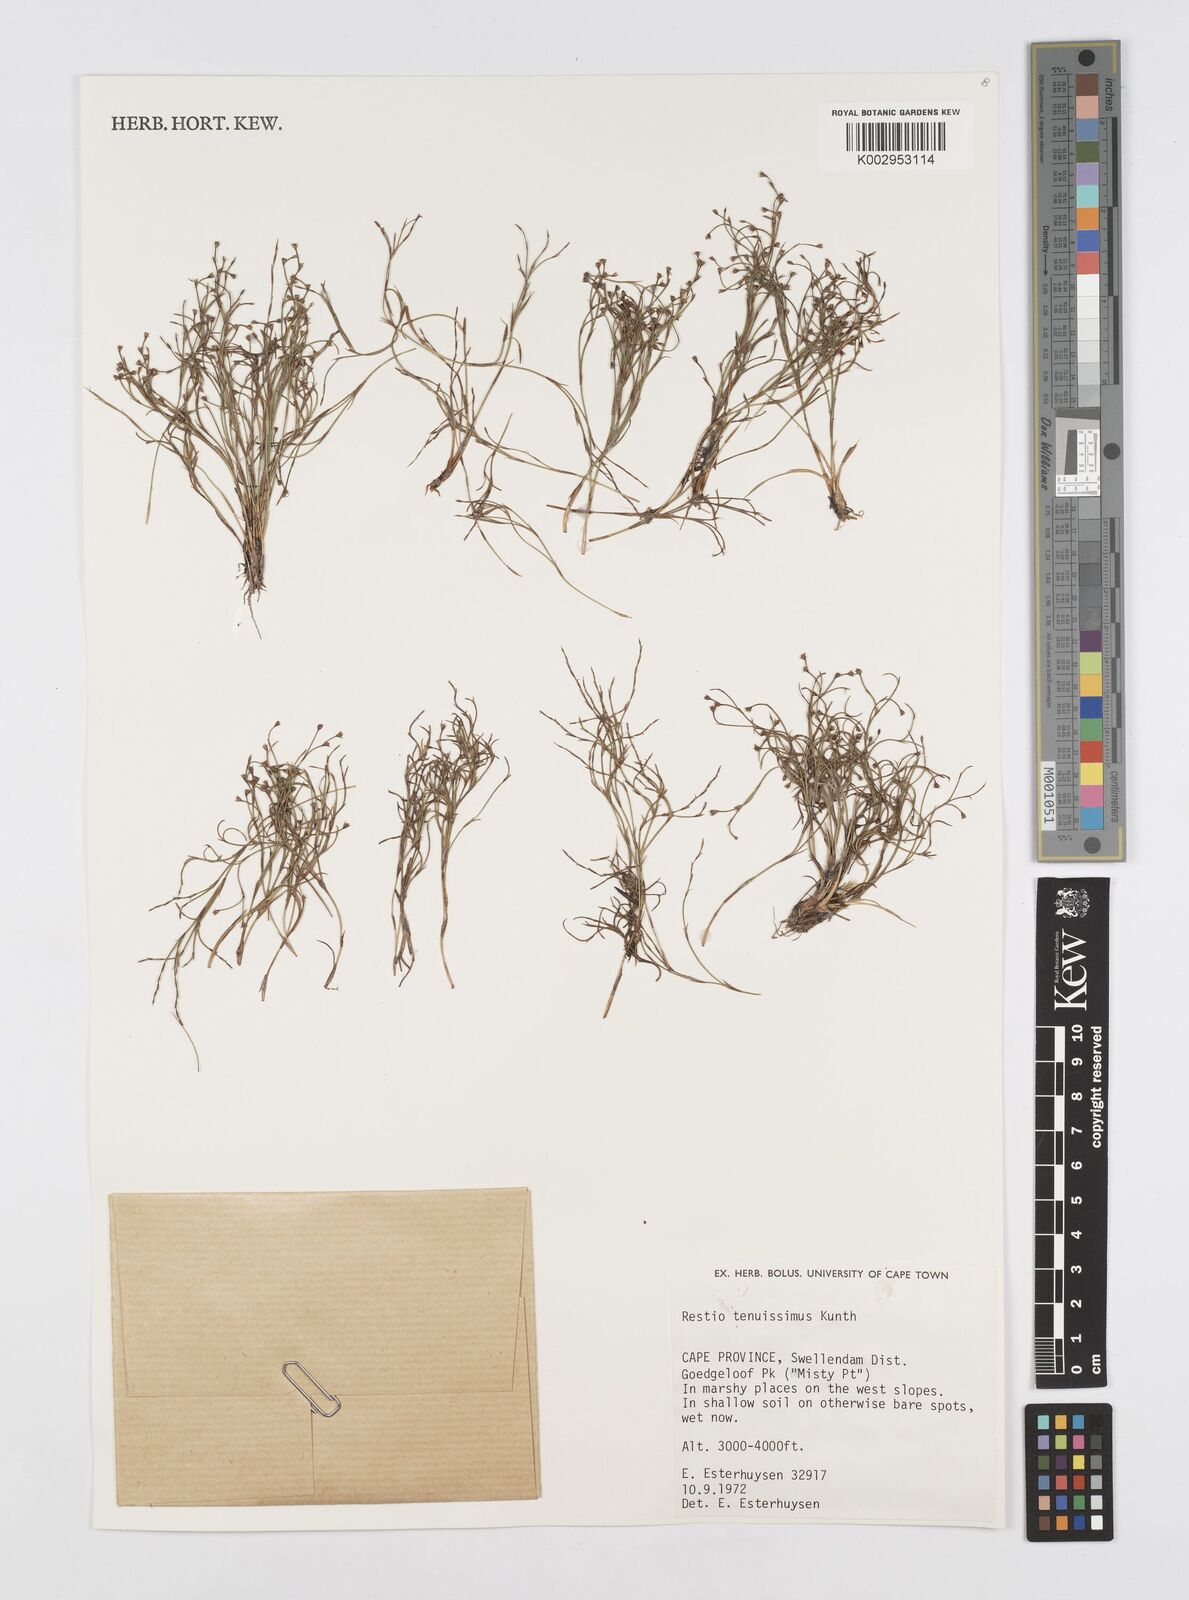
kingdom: Plantae
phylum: Tracheophyta
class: Liliopsida
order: Poales
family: Restionaceae
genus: Restio
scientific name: Restio tenuissimus
